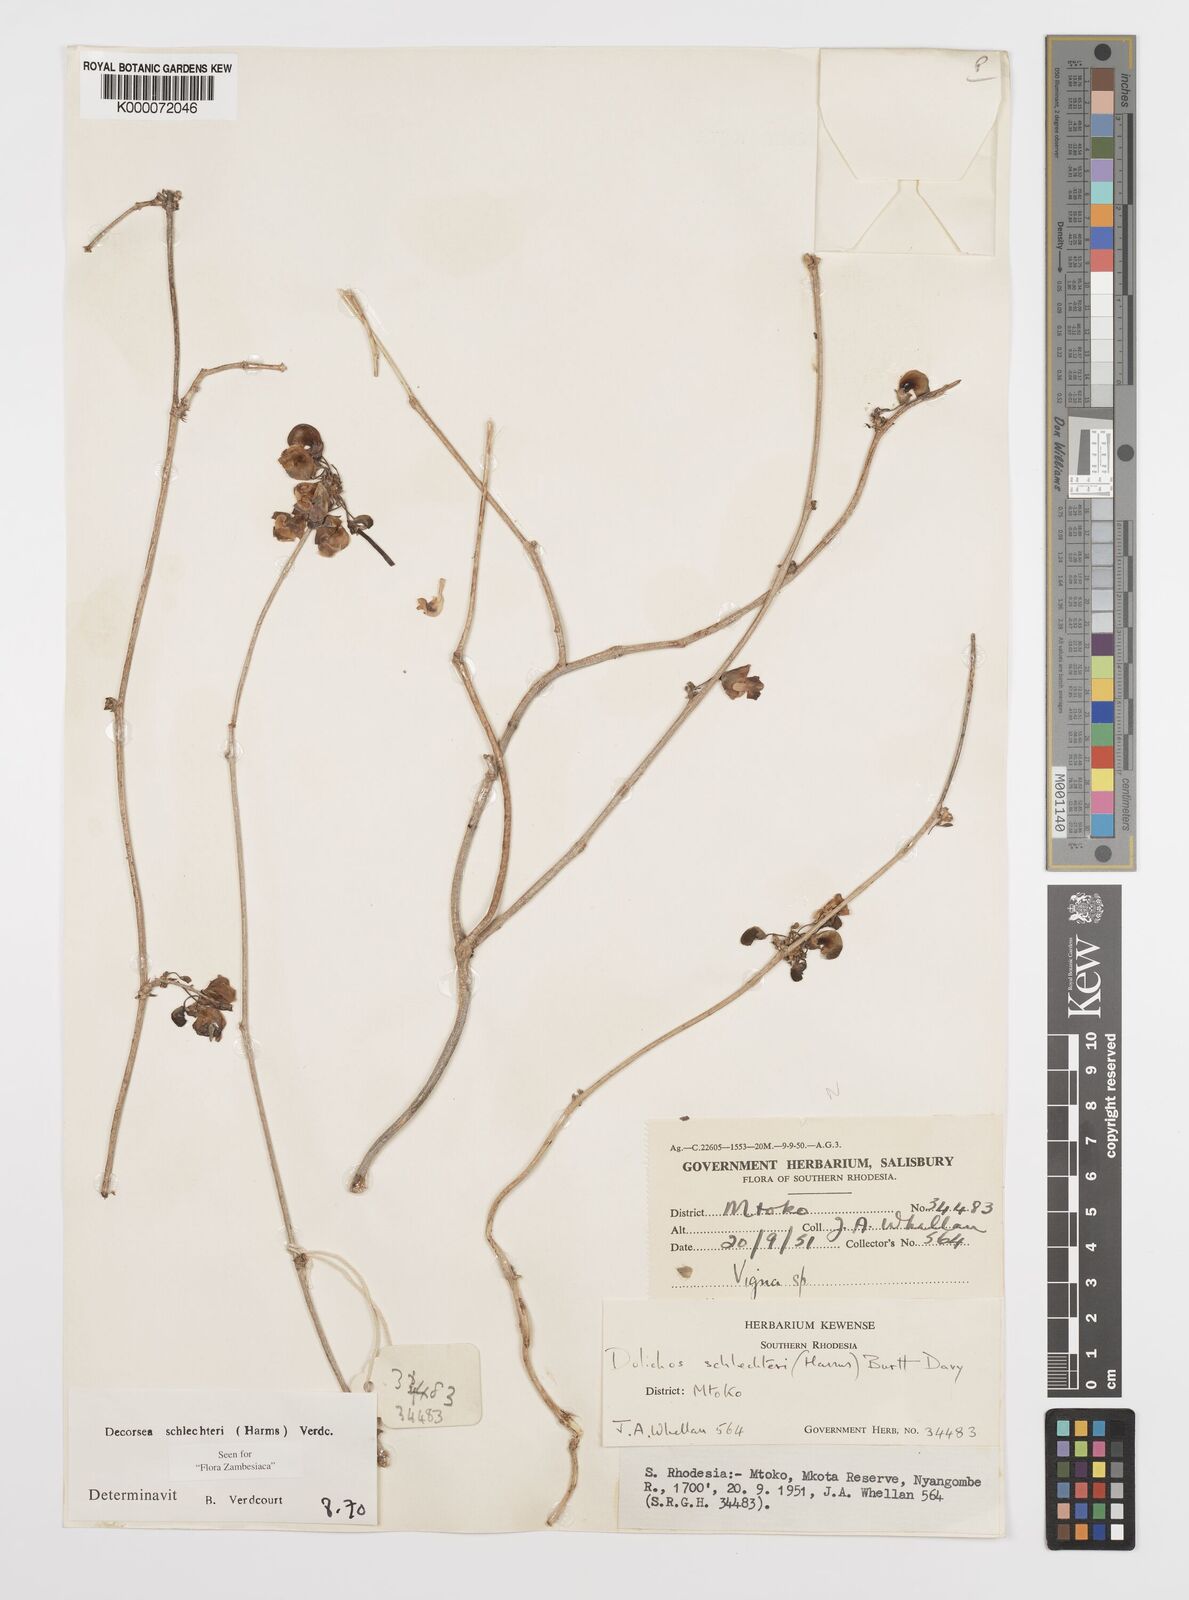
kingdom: Plantae
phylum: Tracheophyta
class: Magnoliopsida
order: Fabales
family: Fabaceae
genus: Decorsea
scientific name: Decorsea schlechteri
